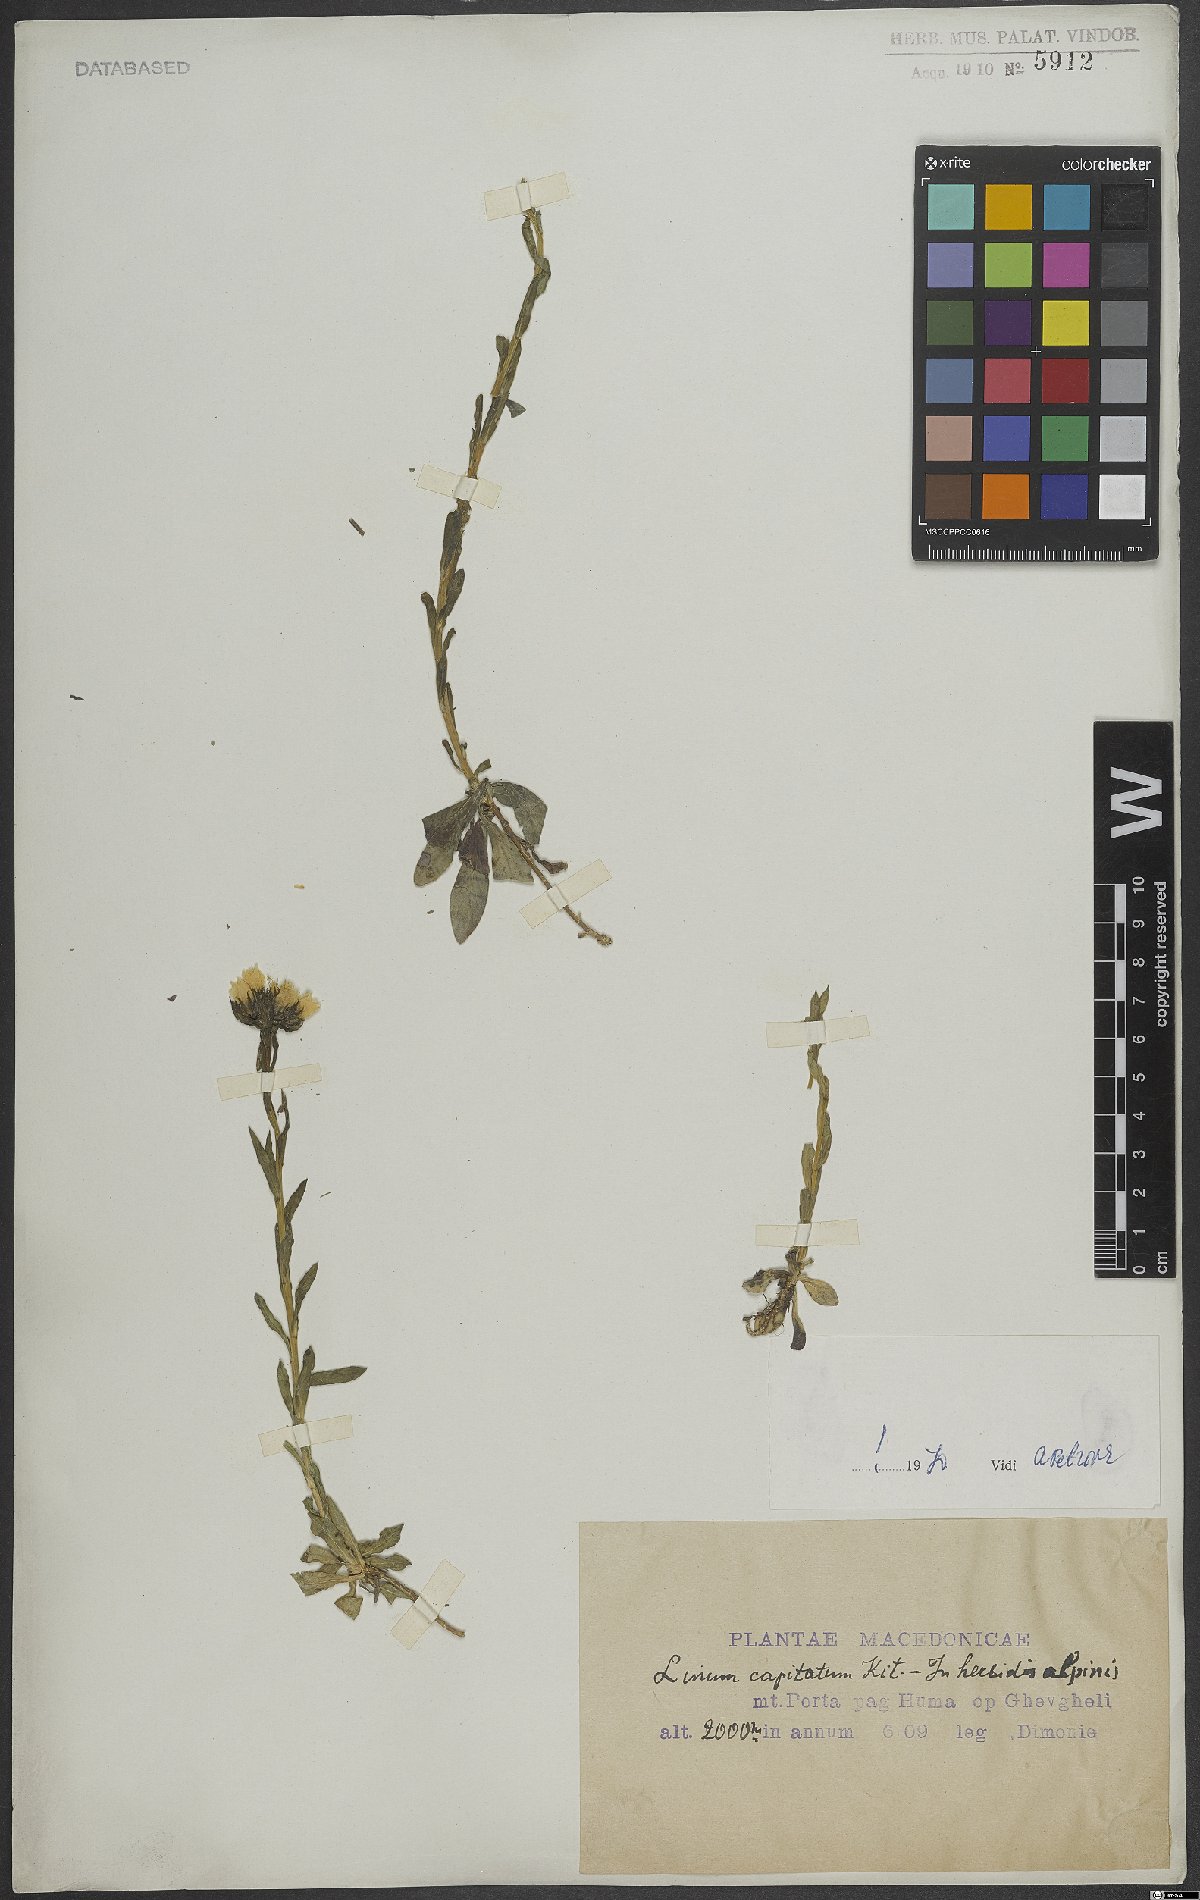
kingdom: Plantae
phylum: Tracheophyta
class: Magnoliopsida
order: Malpighiales
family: Linaceae
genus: Linum
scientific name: Linum capitatum
